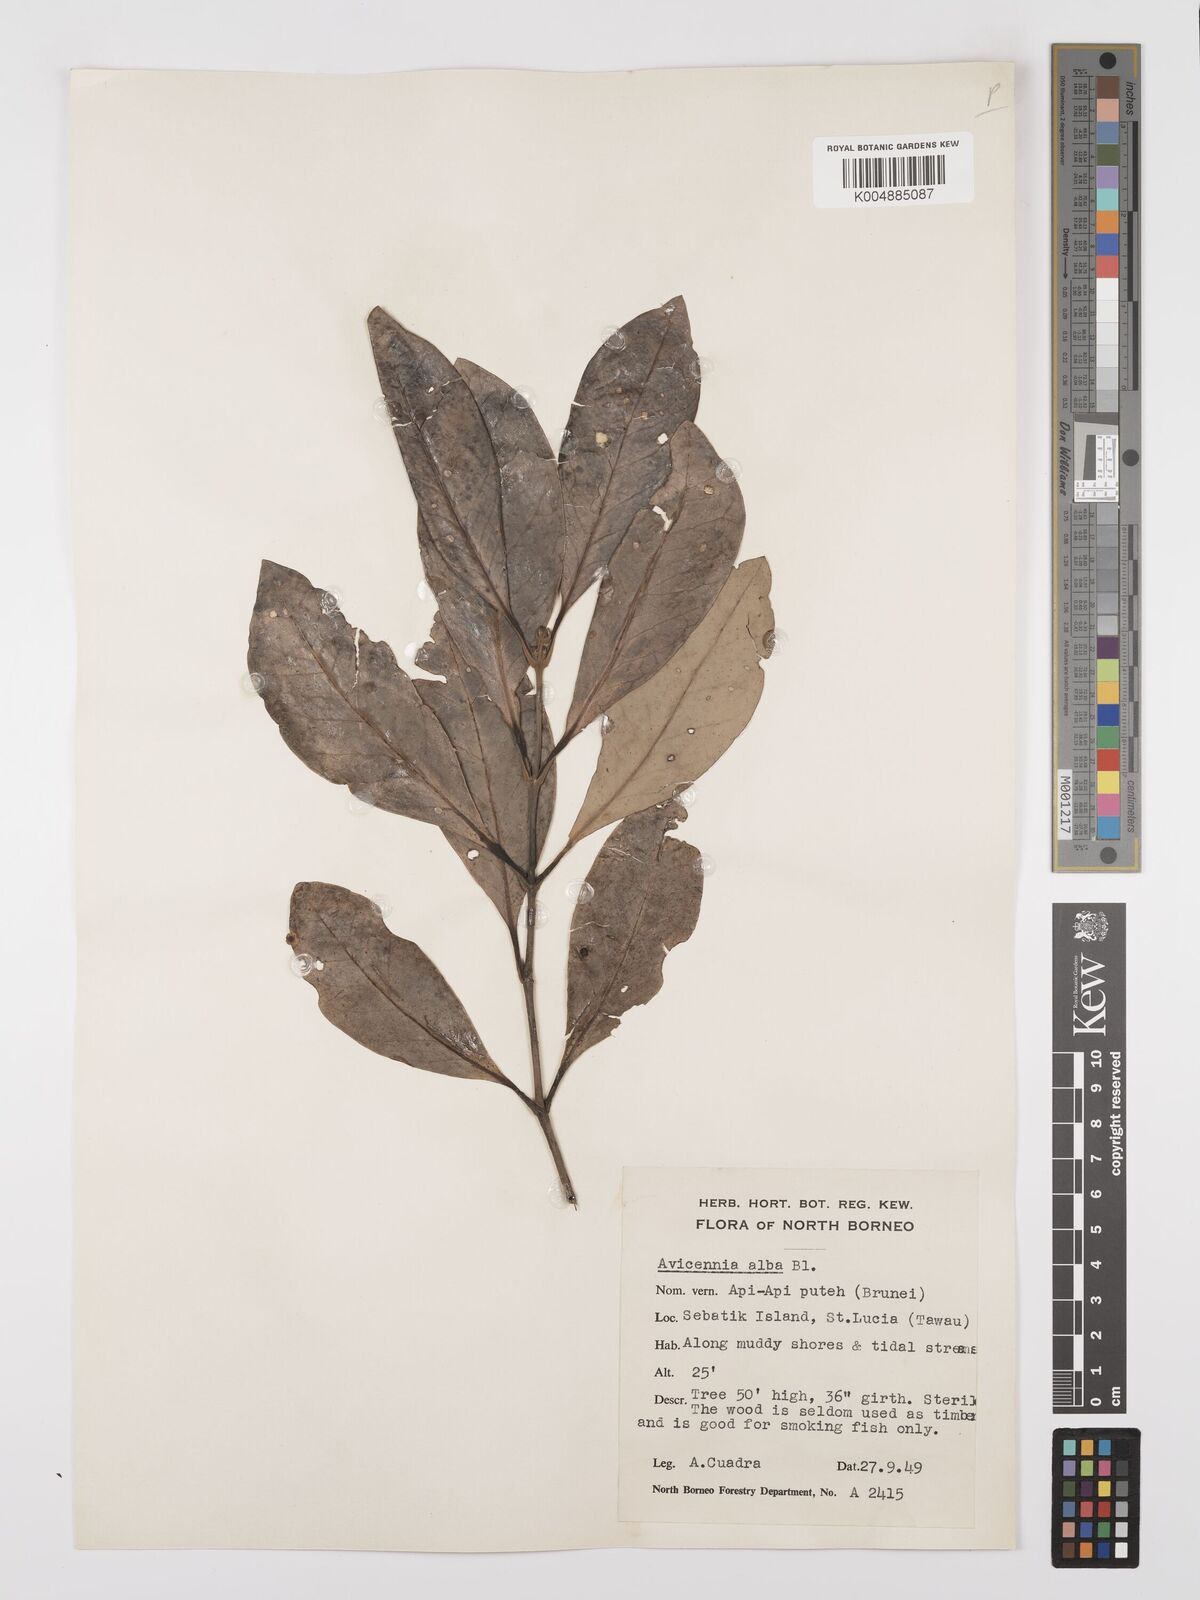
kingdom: Plantae
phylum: Tracheophyta
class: Magnoliopsida
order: Lamiales
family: Acanthaceae
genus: Avicennia
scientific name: Avicennia alba
